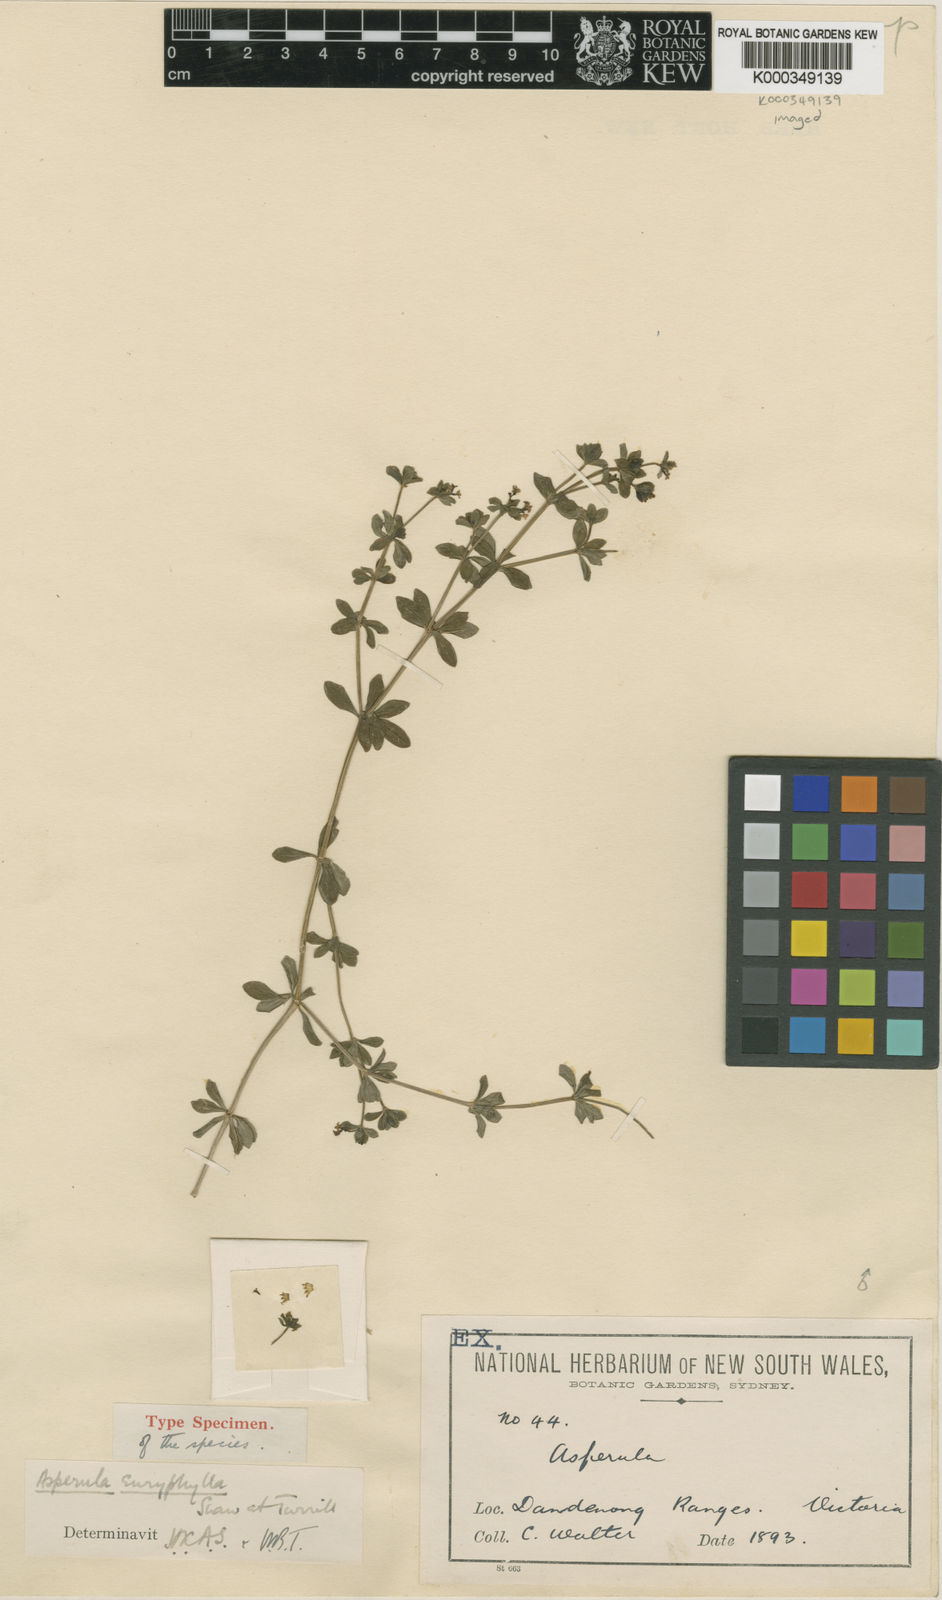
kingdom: Plantae
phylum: Tracheophyta
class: Magnoliopsida
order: Gentianales
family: Rubiaceae
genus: Asperula
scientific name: Asperula euryphylla
